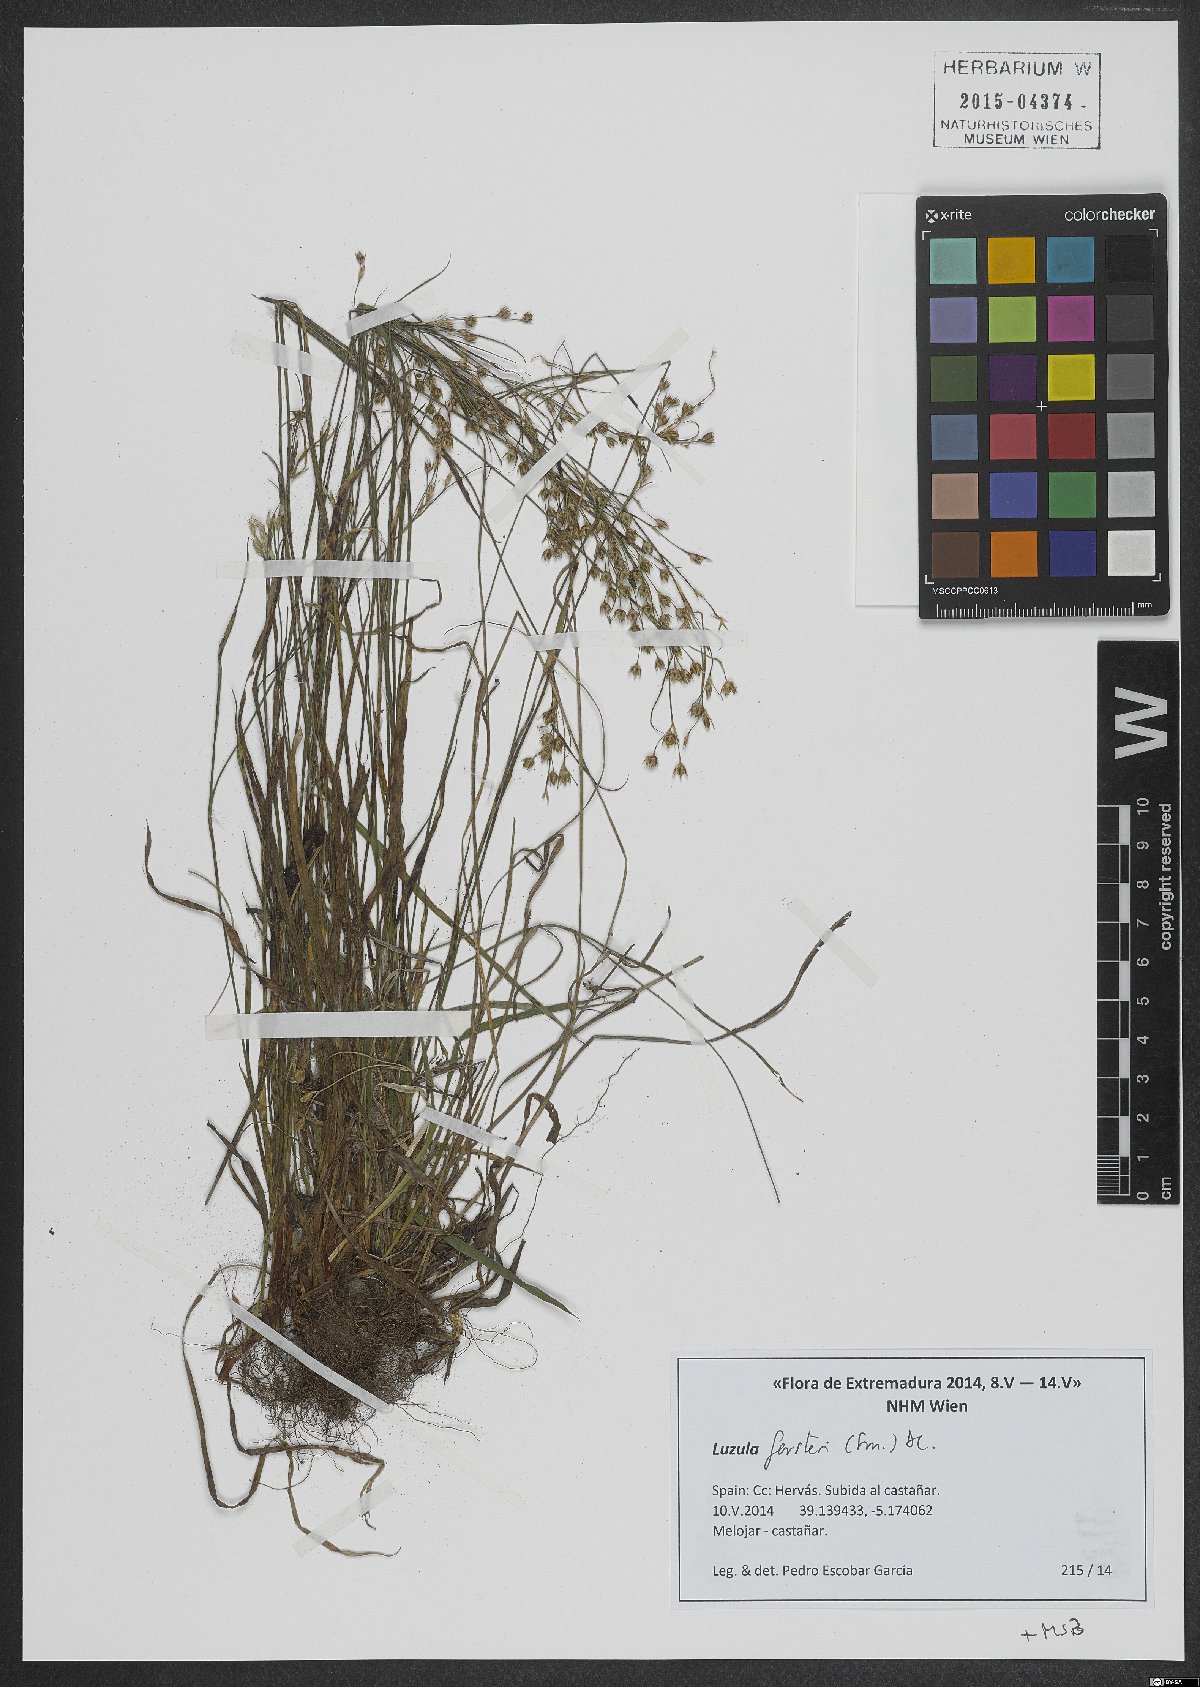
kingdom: Plantae
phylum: Tracheophyta
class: Liliopsida
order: Poales
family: Juncaceae
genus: Luzula
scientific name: Luzula forsteri
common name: Southern wood-rush
